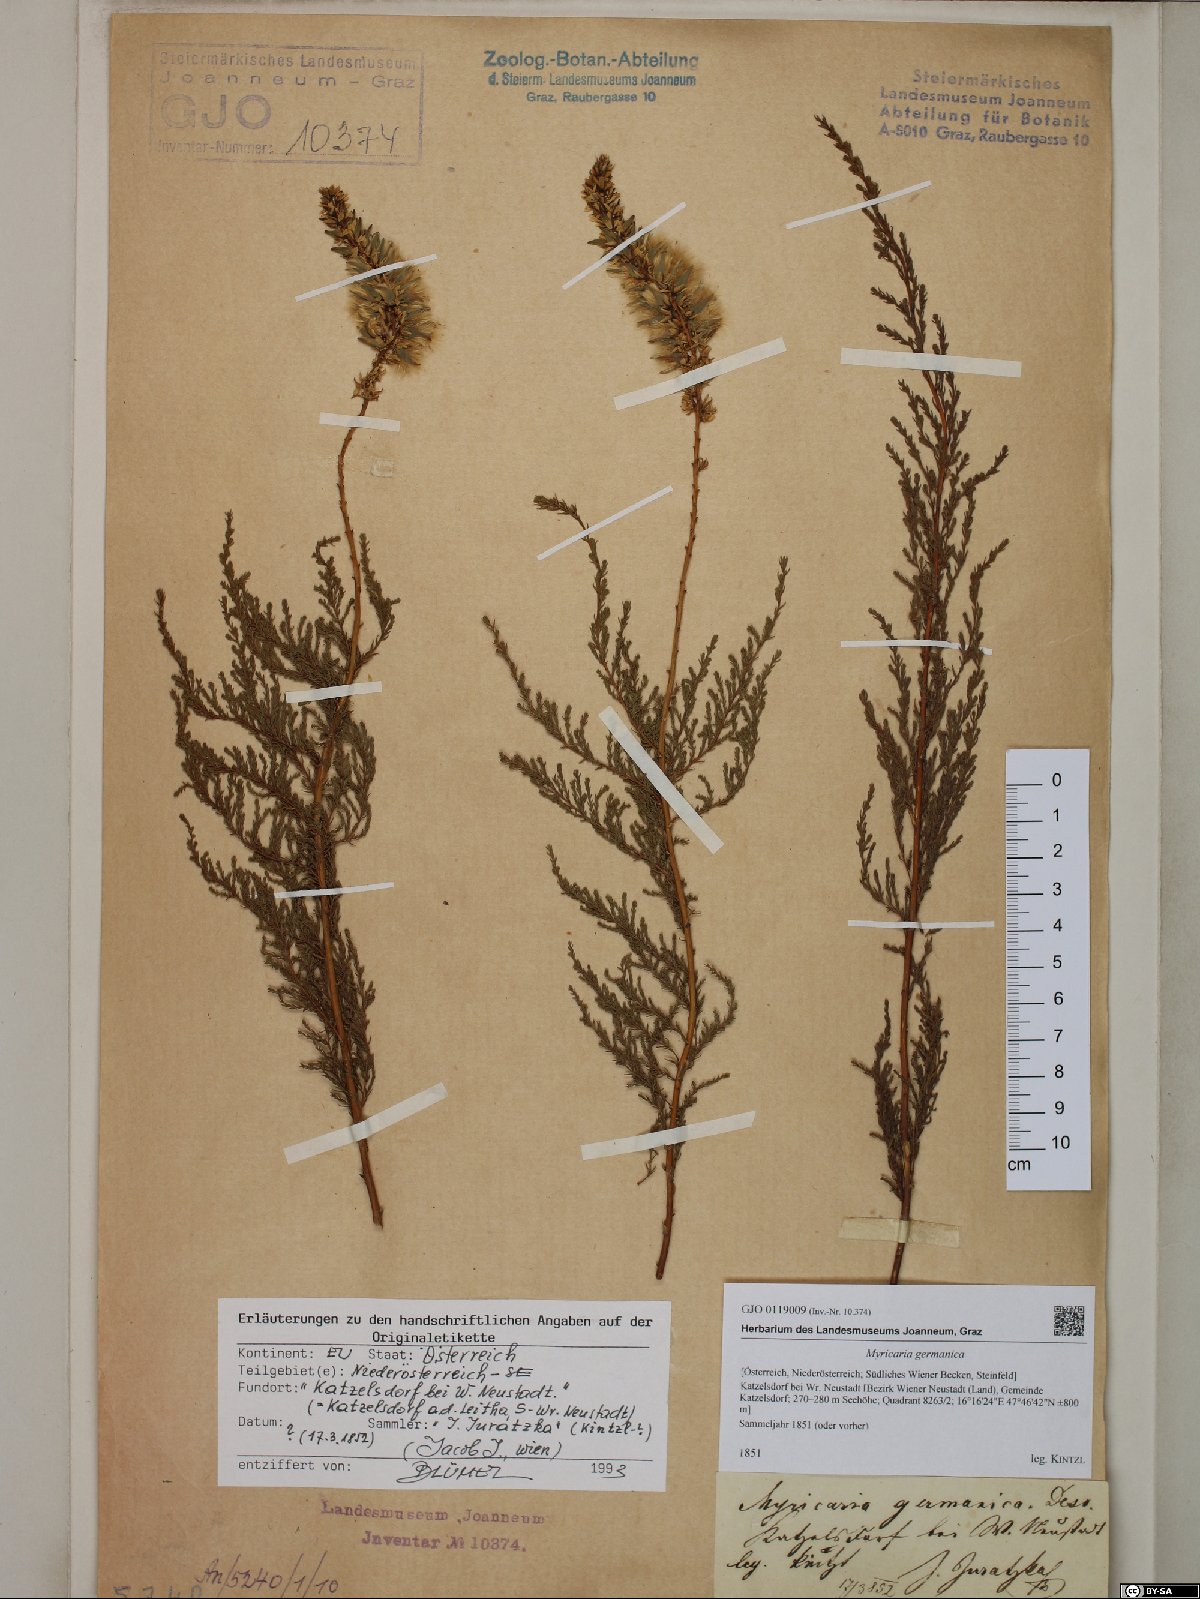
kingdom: Plantae
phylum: Tracheophyta
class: Magnoliopsida
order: Caryophyllales
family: Tamaricaceae
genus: Myricaria
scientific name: Myricaria germanica
